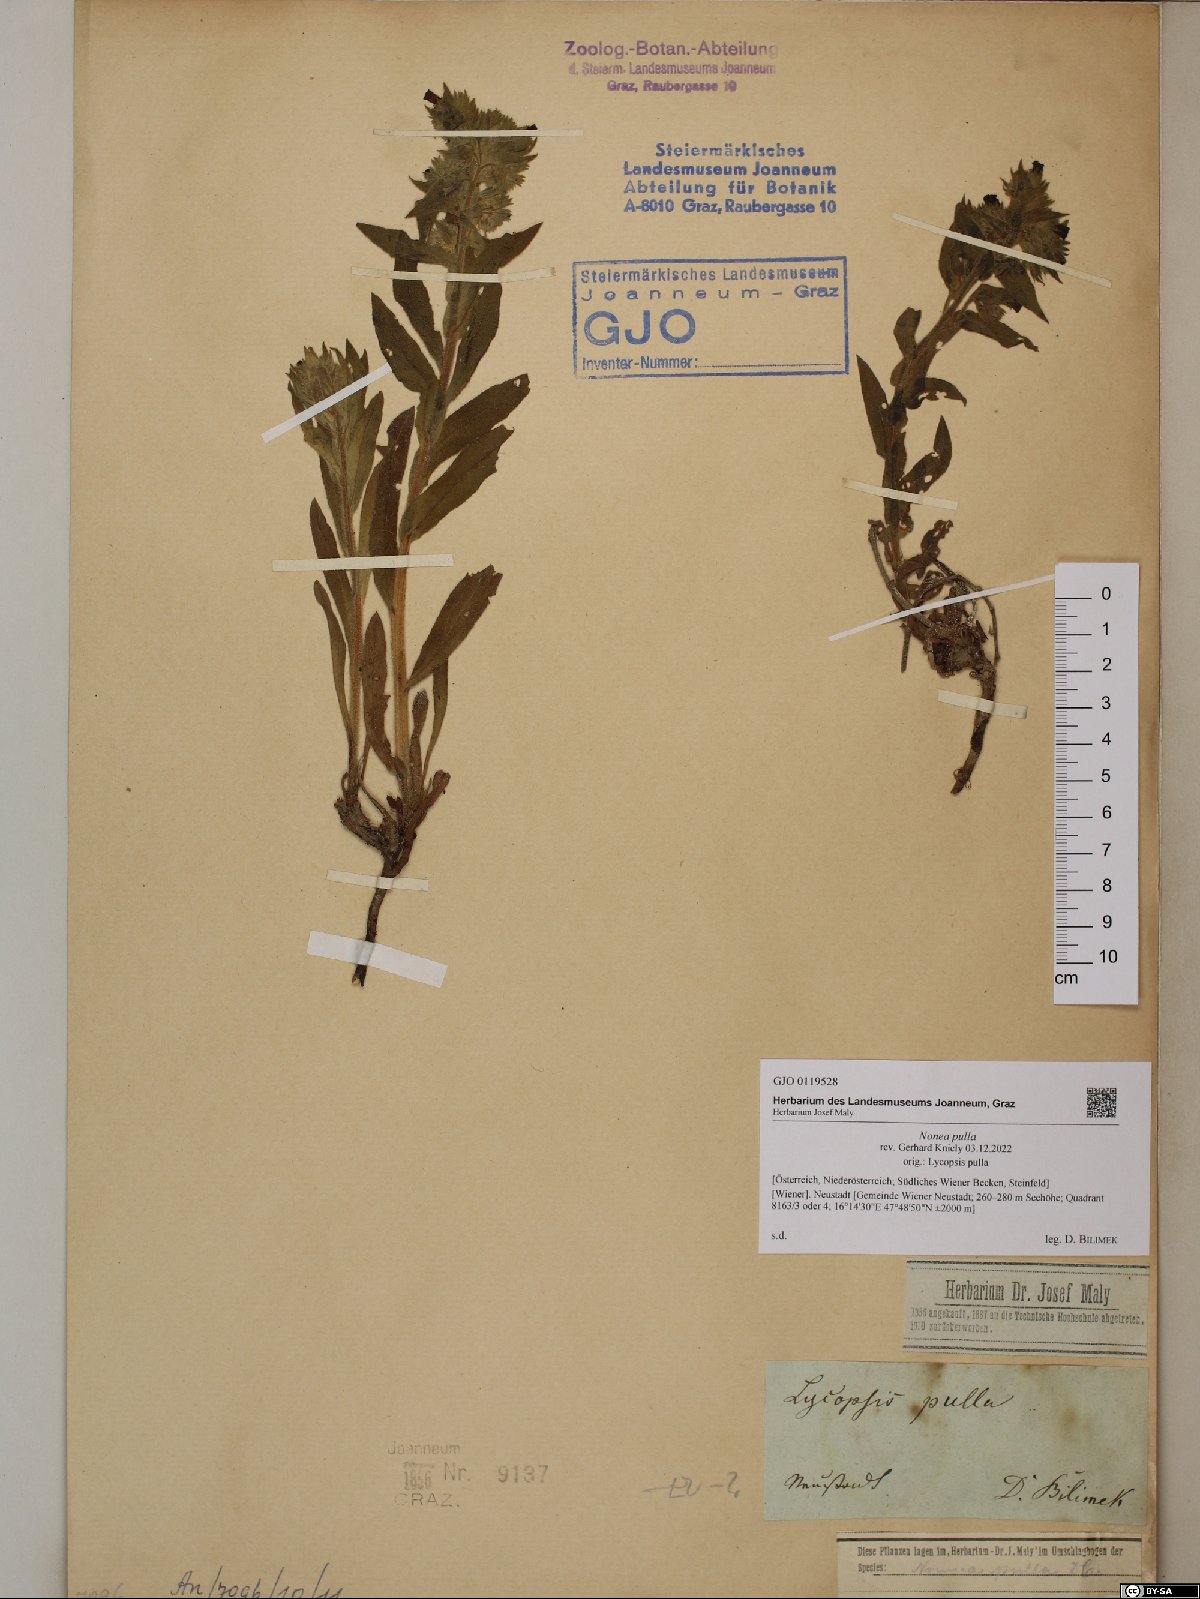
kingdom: Plantae
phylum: Tracheophyta
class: Magnoliopsida
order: Boraginales
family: Boraginaceae
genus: Nonea
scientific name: Nonea pulla
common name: Brown nonea
